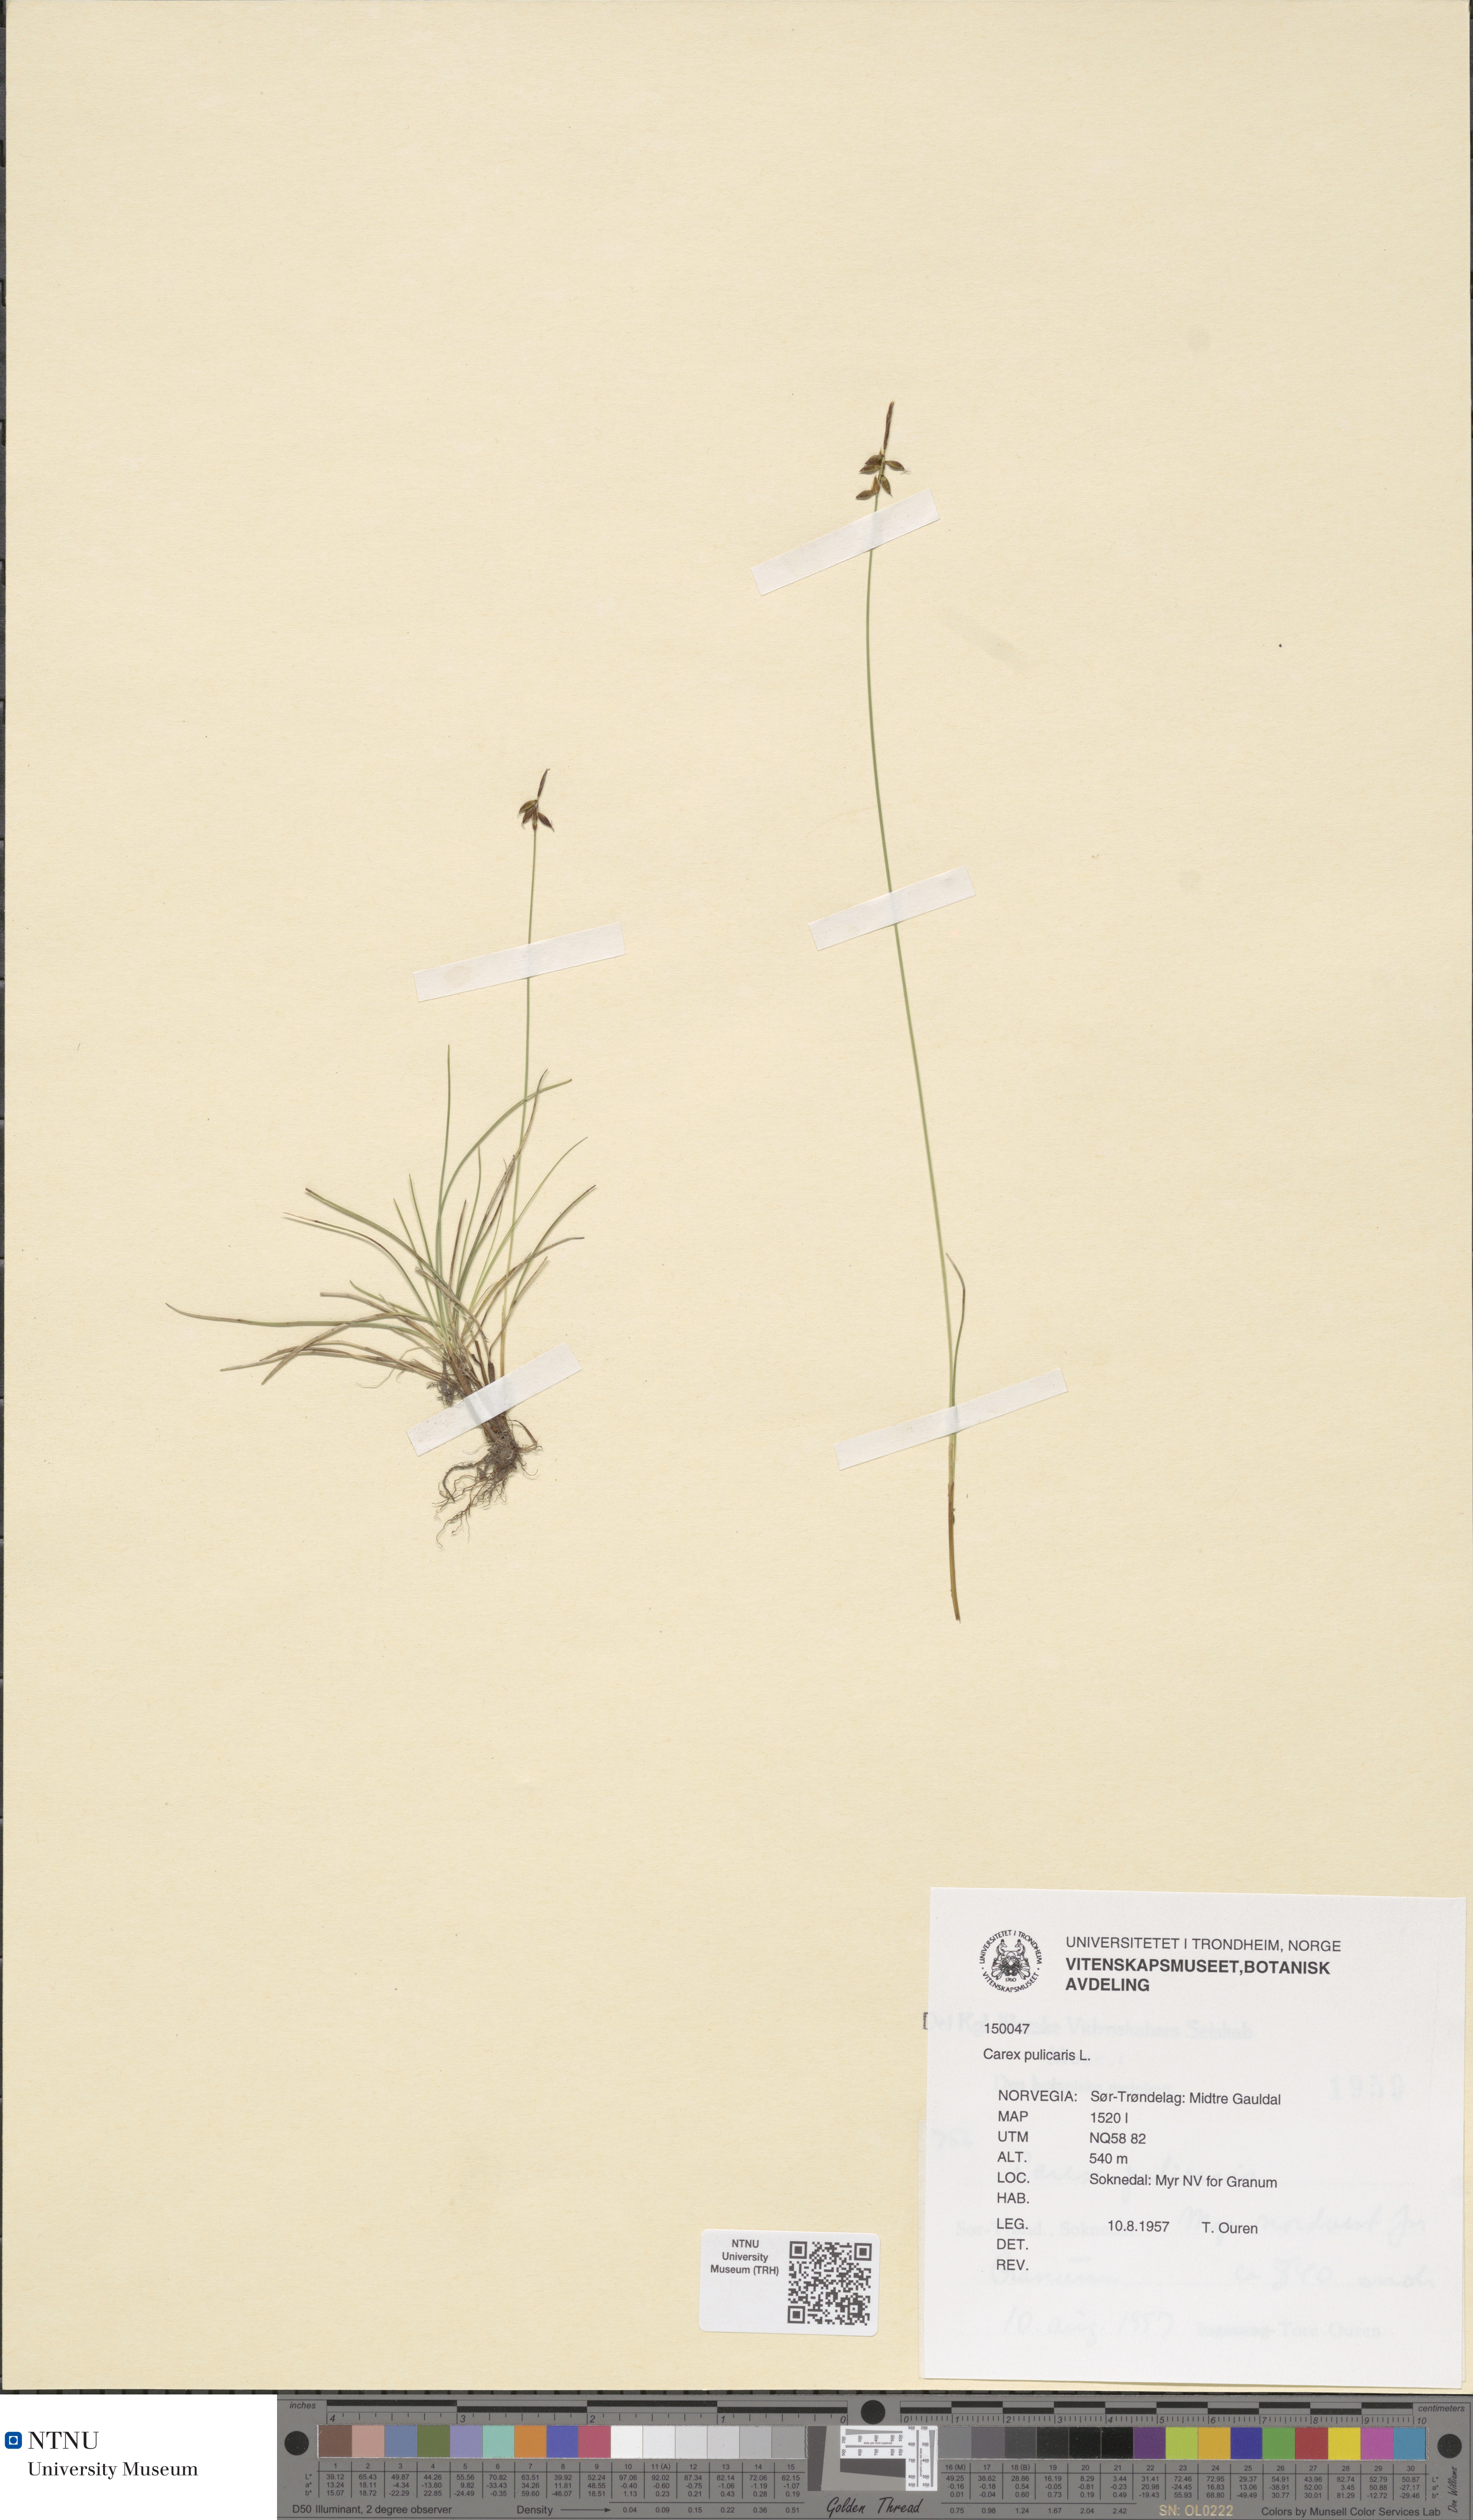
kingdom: Plantae
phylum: Tracheophyta
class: Liliopsida
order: Poales
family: Cyperaceae
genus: Carex
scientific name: Carex pulicaris
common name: Flea sedge
